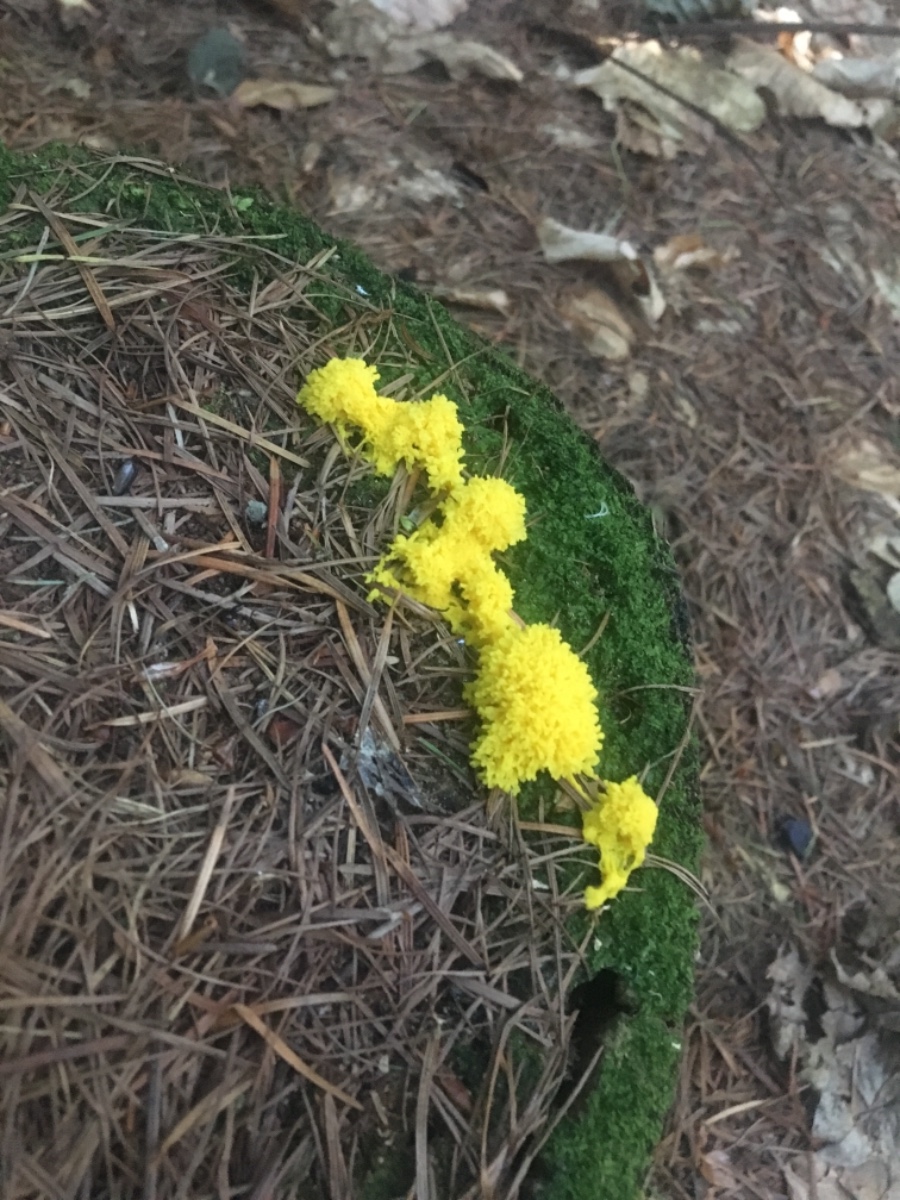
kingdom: Protozoa
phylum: Mycetozoa
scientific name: Mycetozoa
